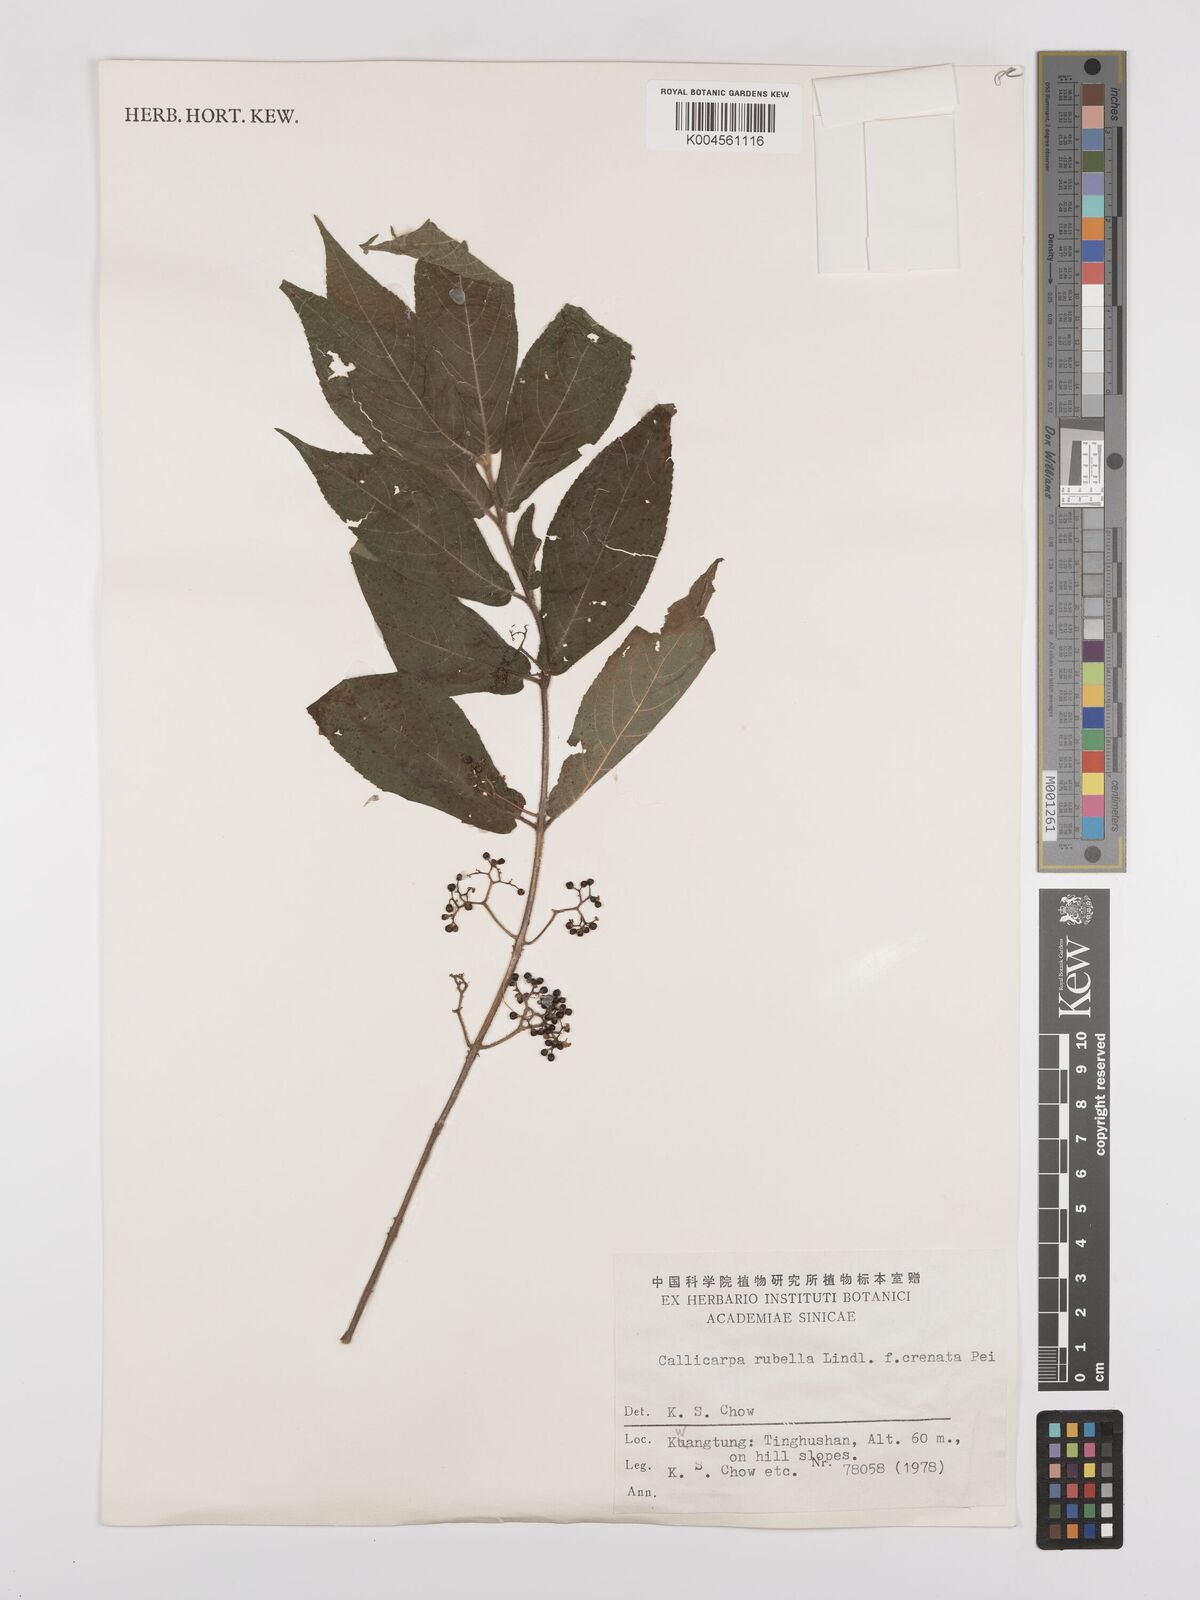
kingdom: Plantae
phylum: Tracheophyta
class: Magnoliopsida
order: Lamiales
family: Lamiaceae
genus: Callicarpa
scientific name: Callicarpa rubella
